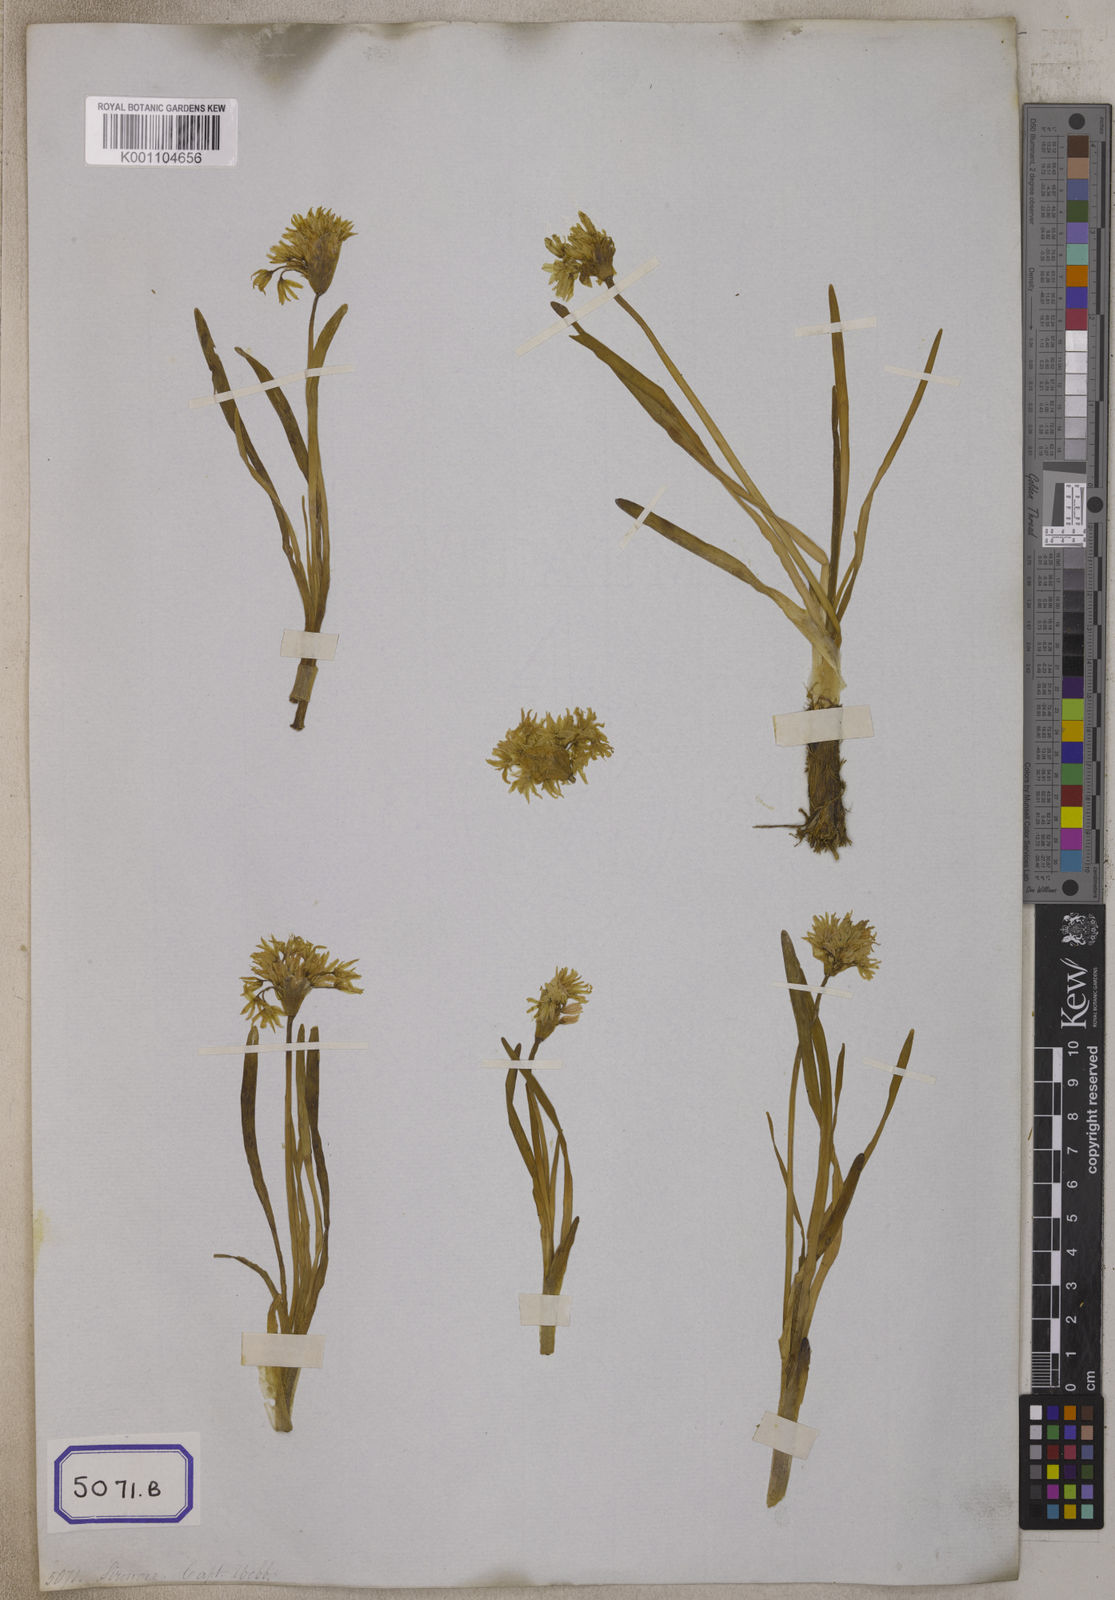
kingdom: Plantae
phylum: Tracheophyta
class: Liliopsida
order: Asparagales
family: Amaryllidaceae
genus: Allium
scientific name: Allium
